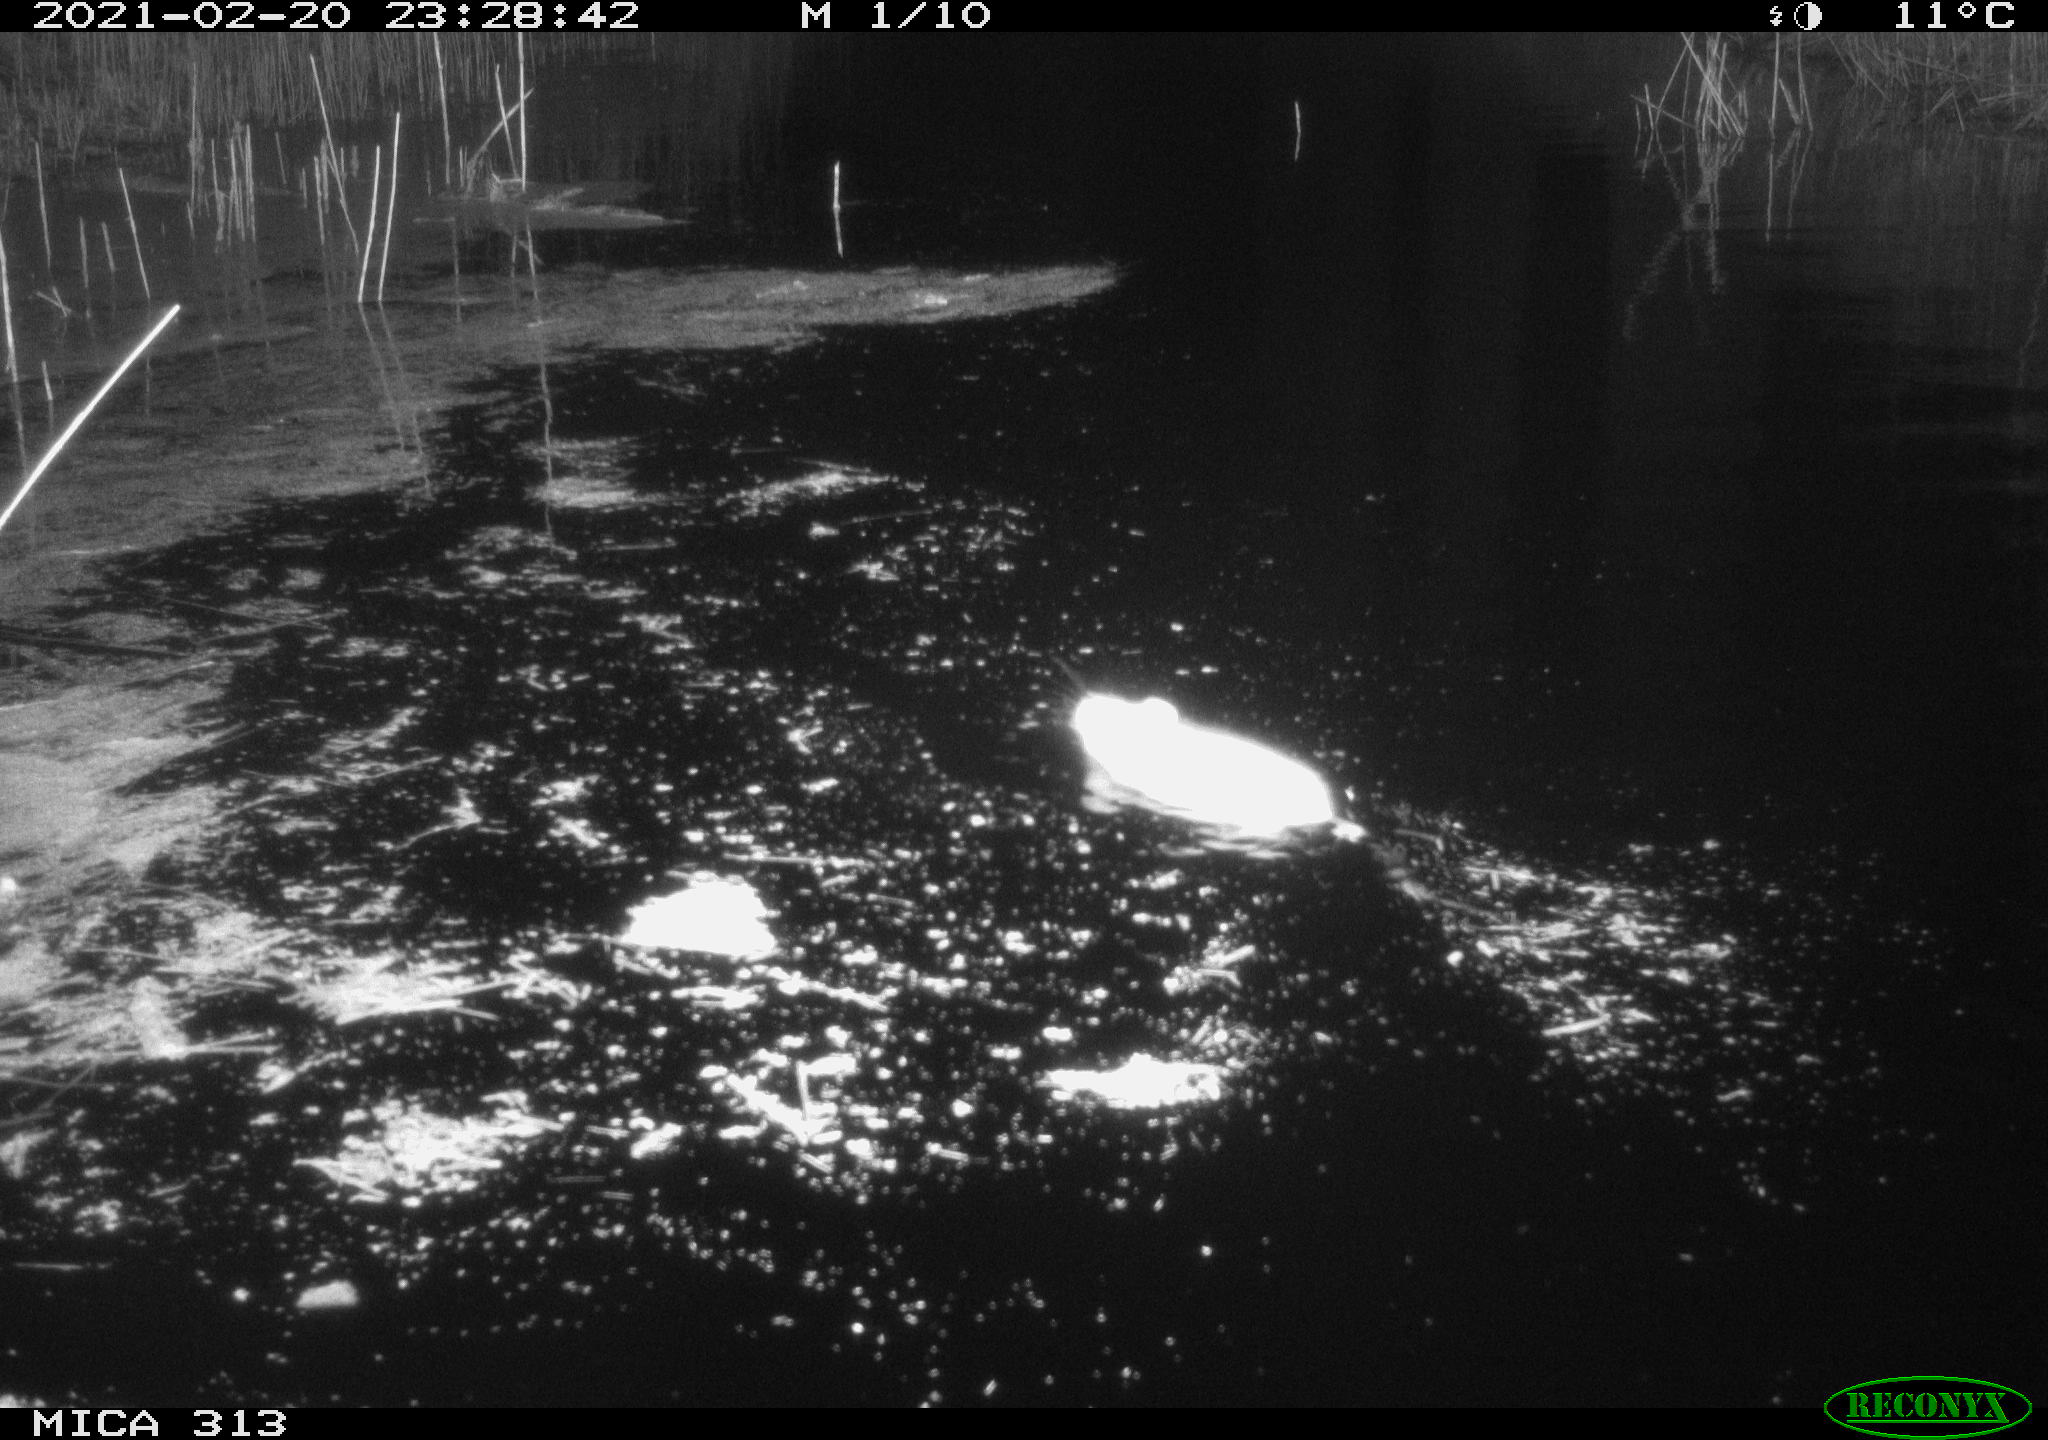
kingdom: Animalia
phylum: Chordata
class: Mammalia
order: Rodentia
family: Muridae
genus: Rattus
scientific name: Rattus norvegicus
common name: Brown rat
